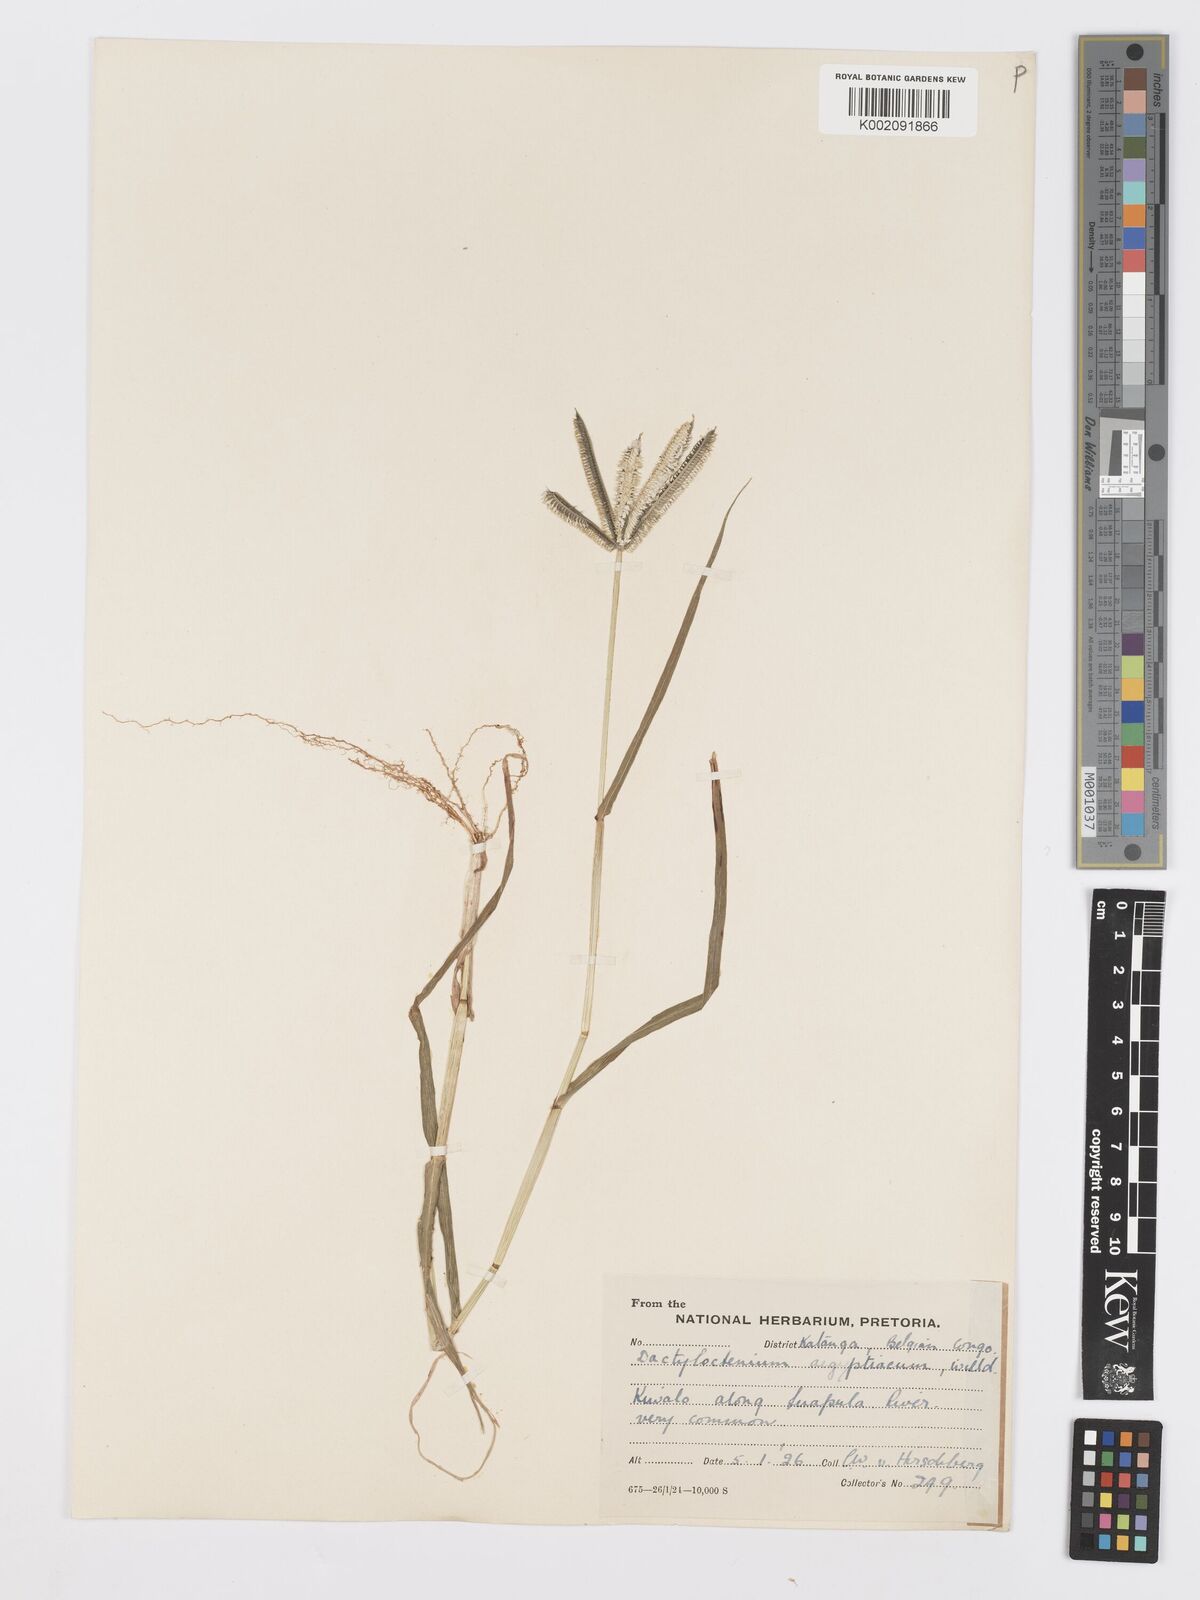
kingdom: Plantae
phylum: Tracheophyta
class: Liliopsida
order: Poales
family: Poaceae
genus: Dactyloctenium
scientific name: Dactyloctenium aegyptium
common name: Egyptian grass
